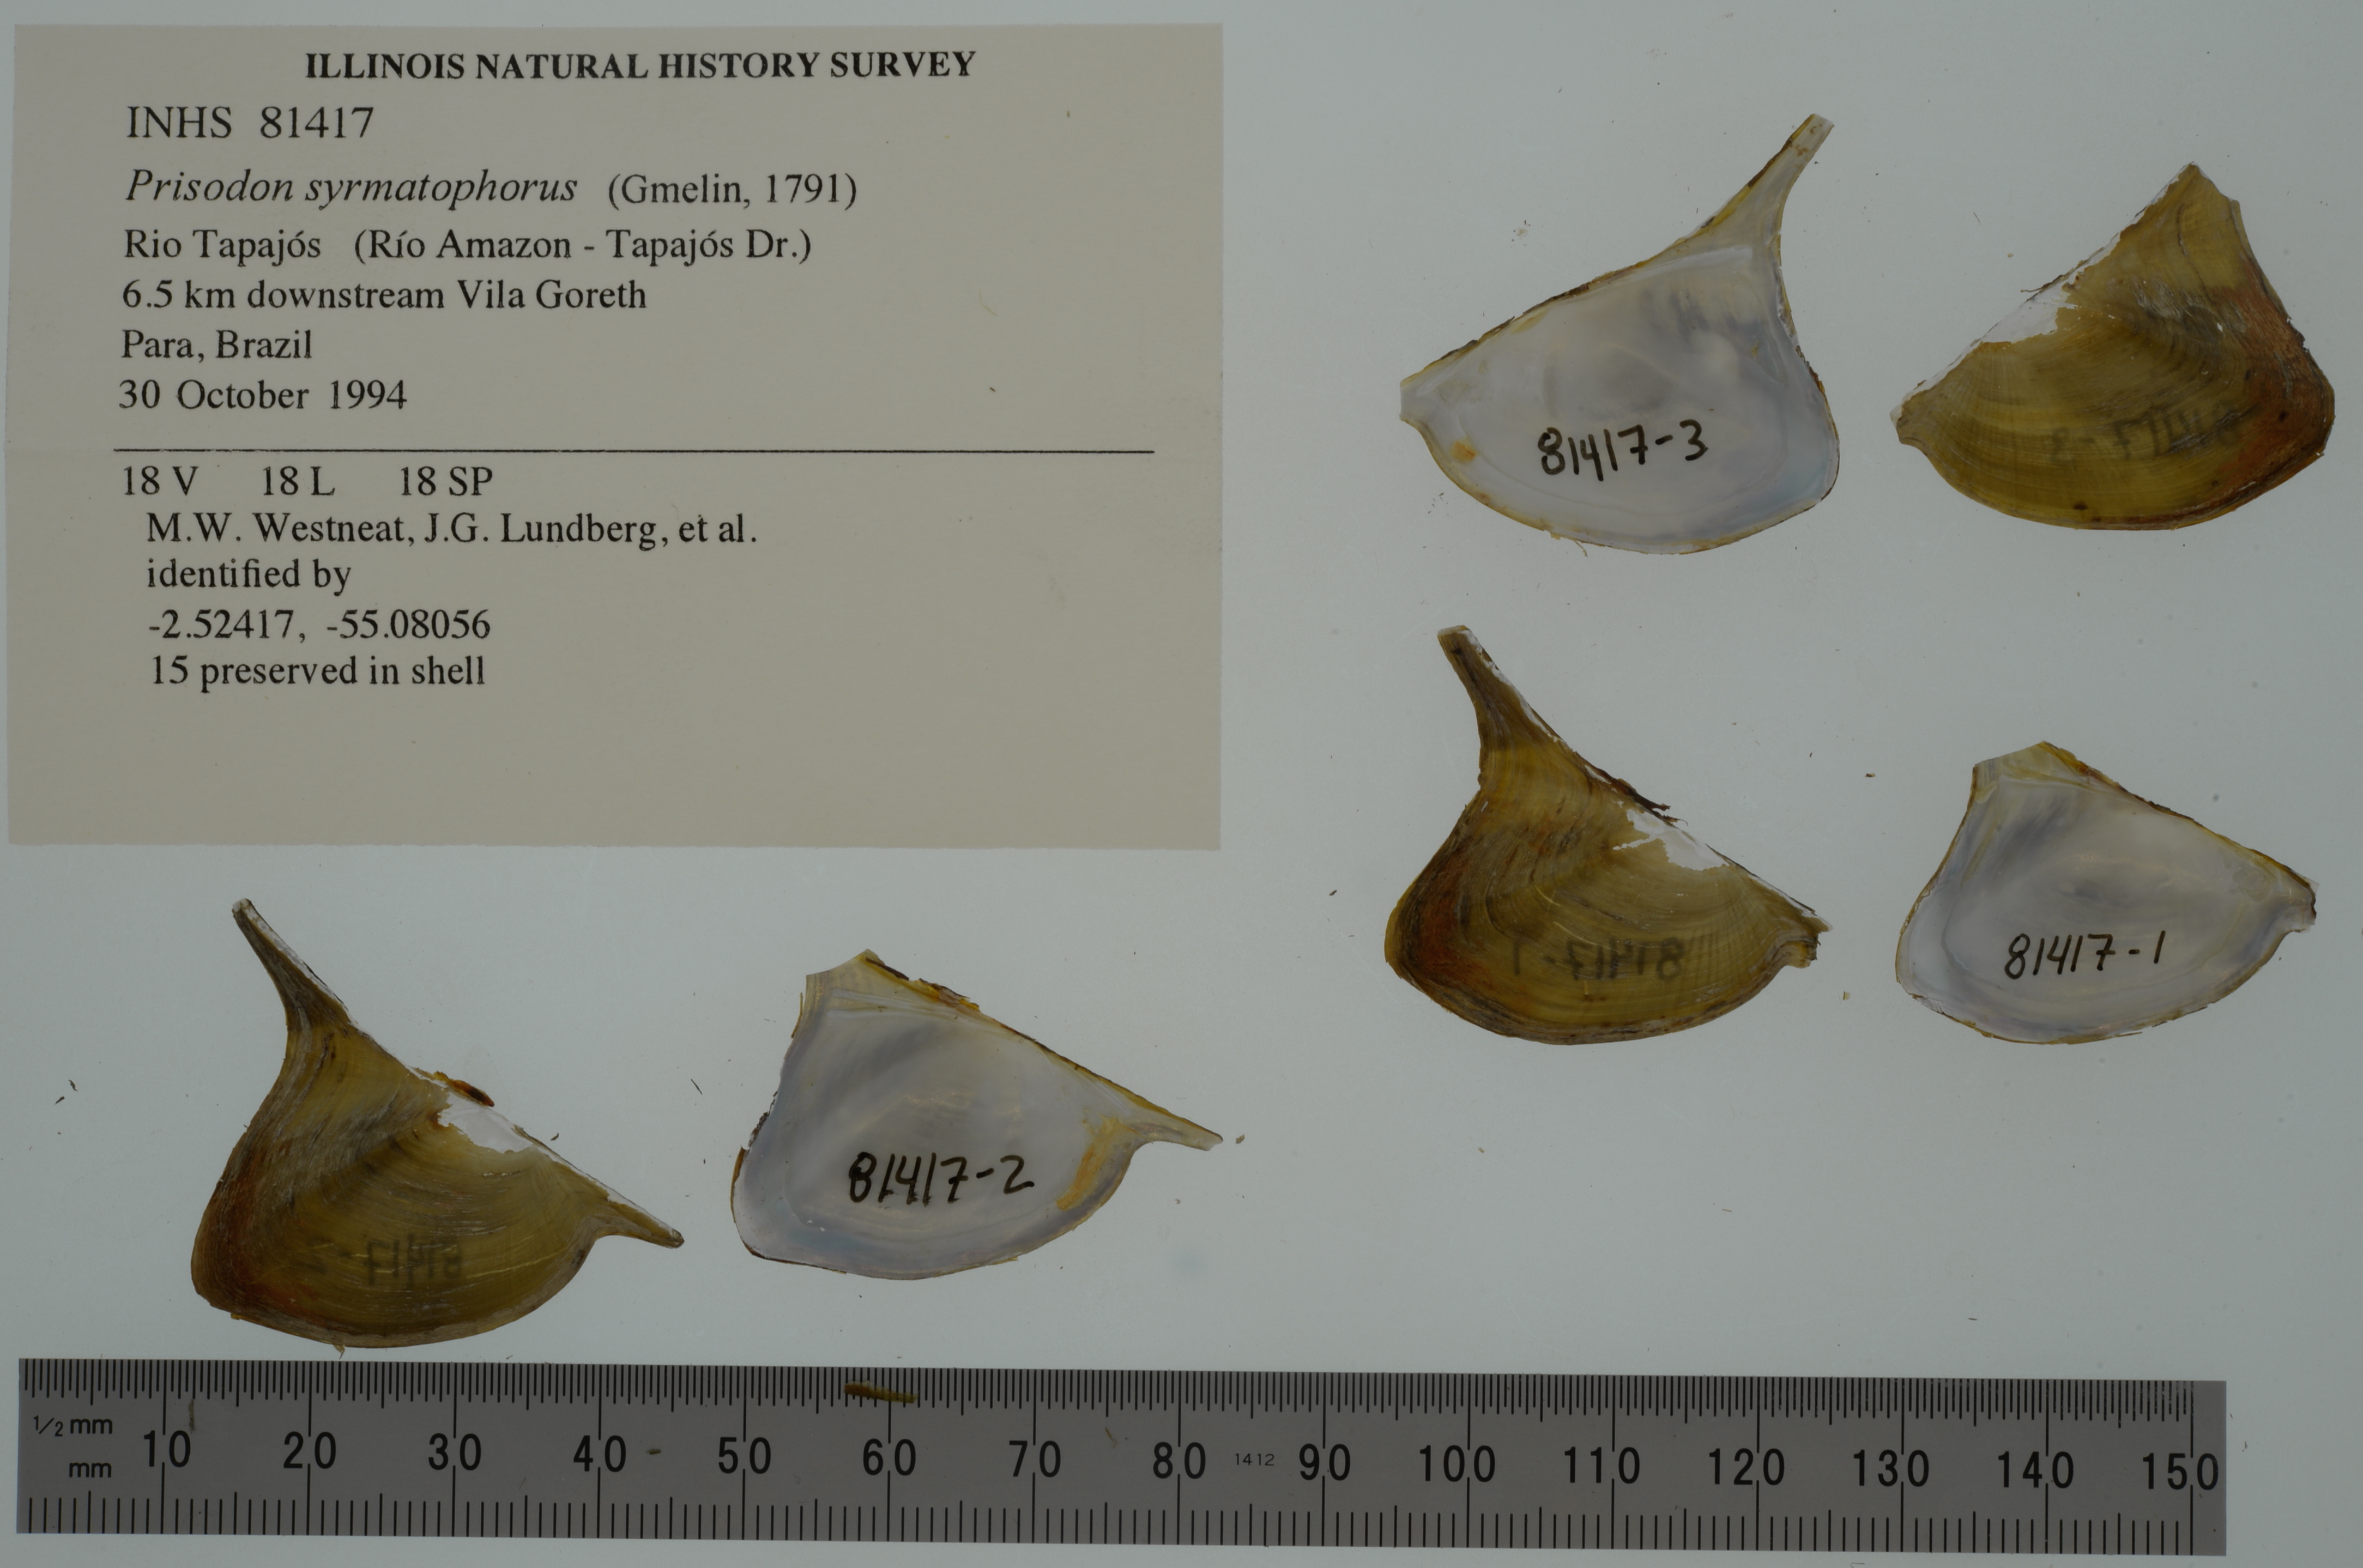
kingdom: Animalia
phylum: Mollusca
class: Bivalvia
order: Unionida
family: Hyriidae
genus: Prisodon
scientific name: Prisodon syrmatophorus
